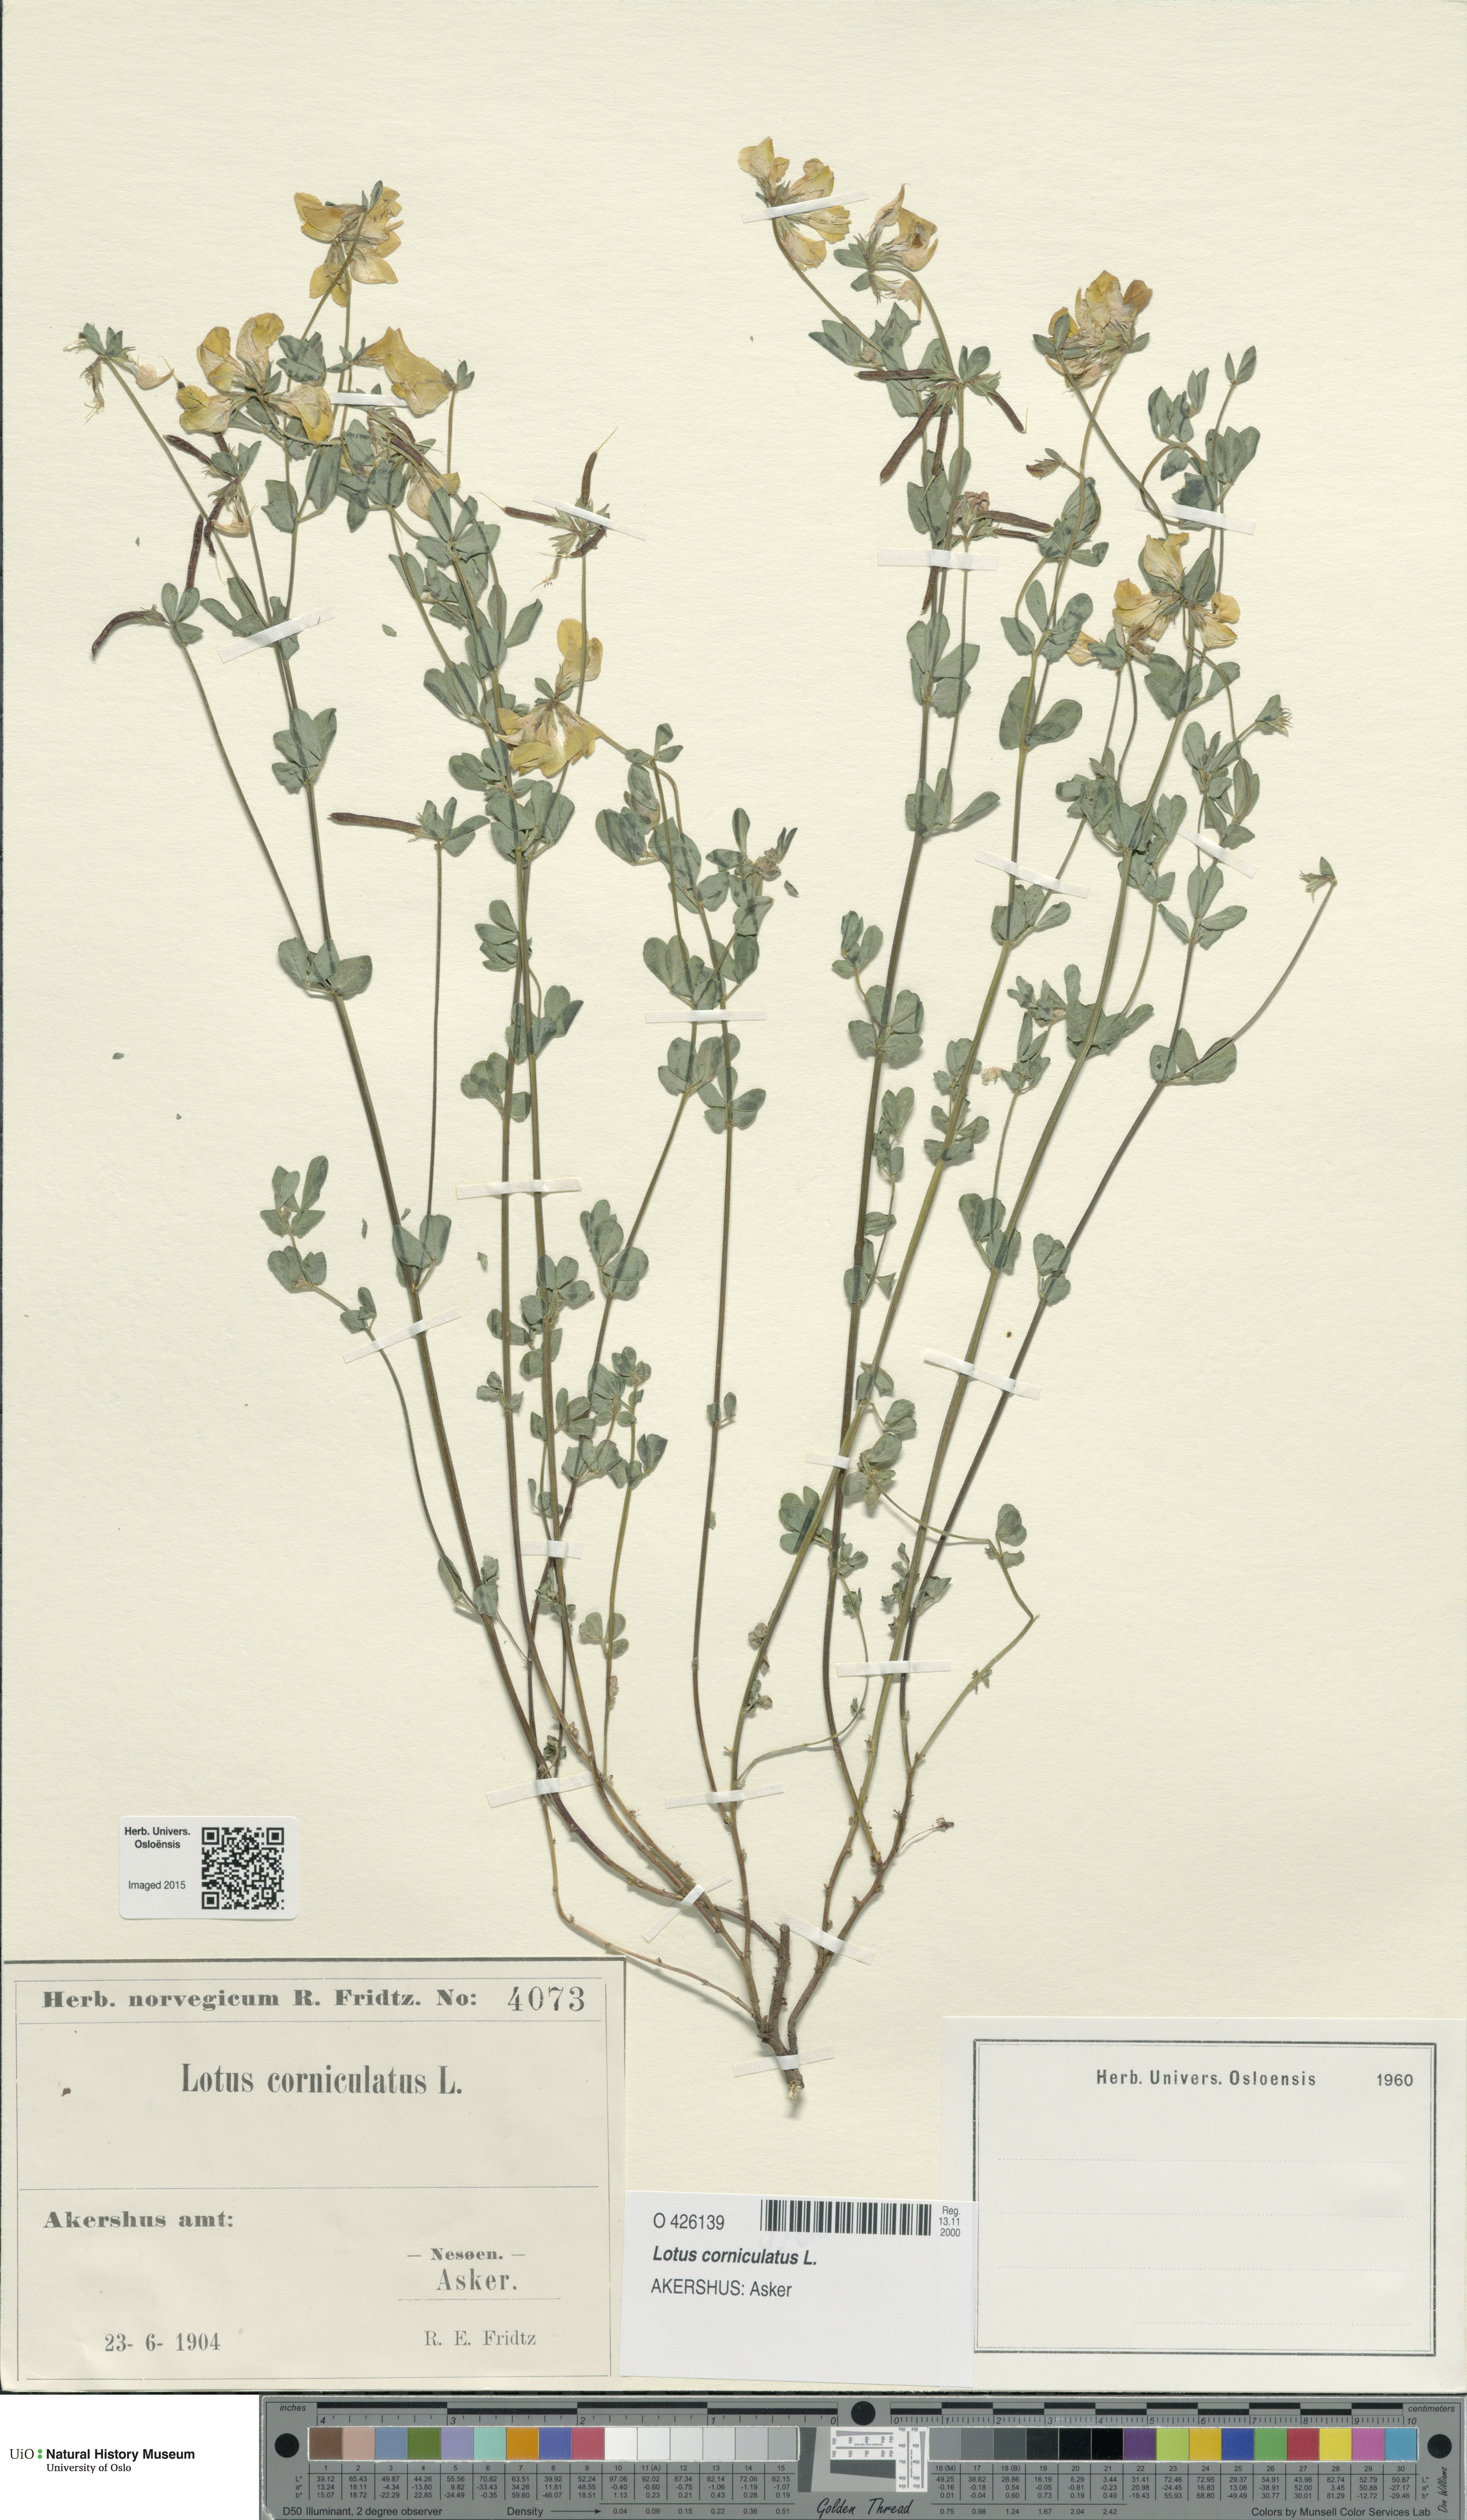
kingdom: Plantae
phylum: Tracheophyta
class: Magnoliopsida
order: Fabales
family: Fabaceae
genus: Lotus
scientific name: Lotus corniculatus
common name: Common bird's-foot-trefoil
